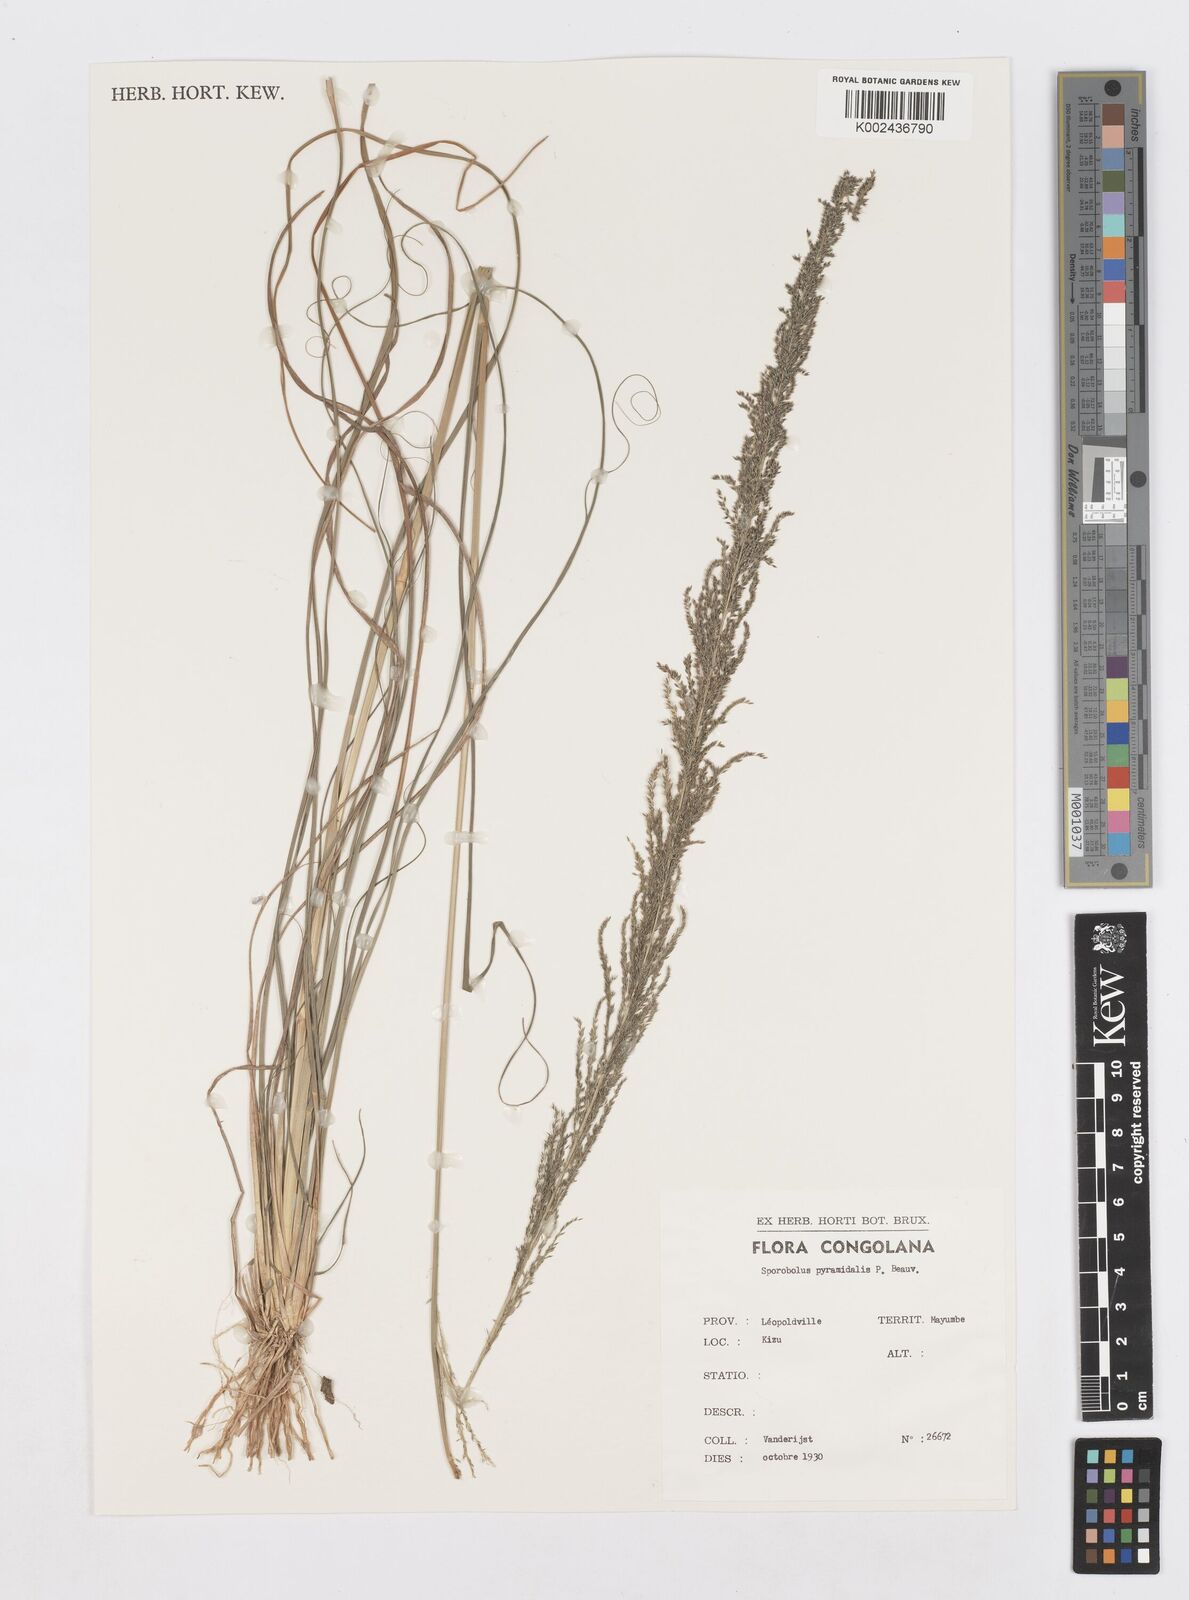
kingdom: Plantae
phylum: Tracheophyta
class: Liliopsida
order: Poales
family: Poaceae
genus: Sporobolus
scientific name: Sporobolus pyramidalis
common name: West indian dropseed
